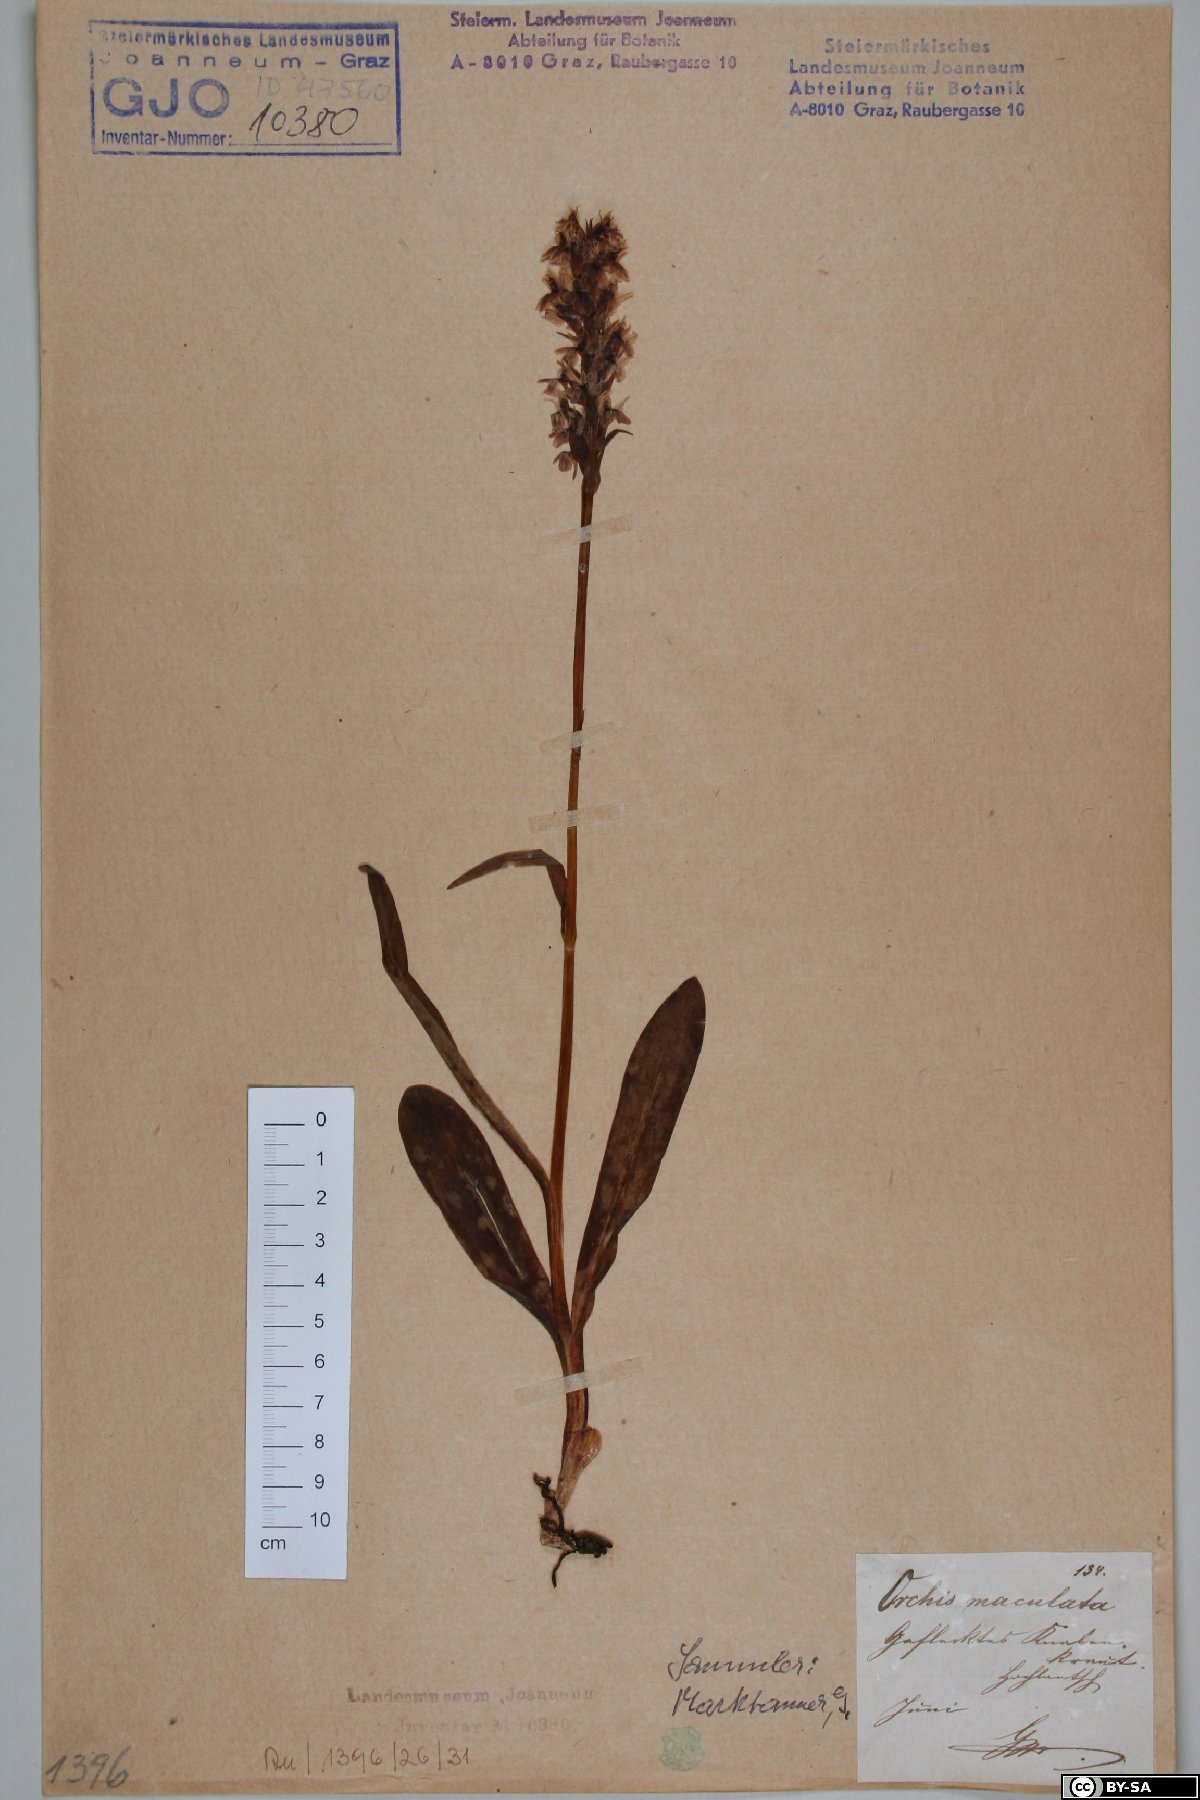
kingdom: Plantae
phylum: Tracheophyta
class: Liliopsida
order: Asparagales
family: Orchidaceae
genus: Dactylorhiza
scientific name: Dactylorhiza maculata
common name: Heath spotted-orchid
